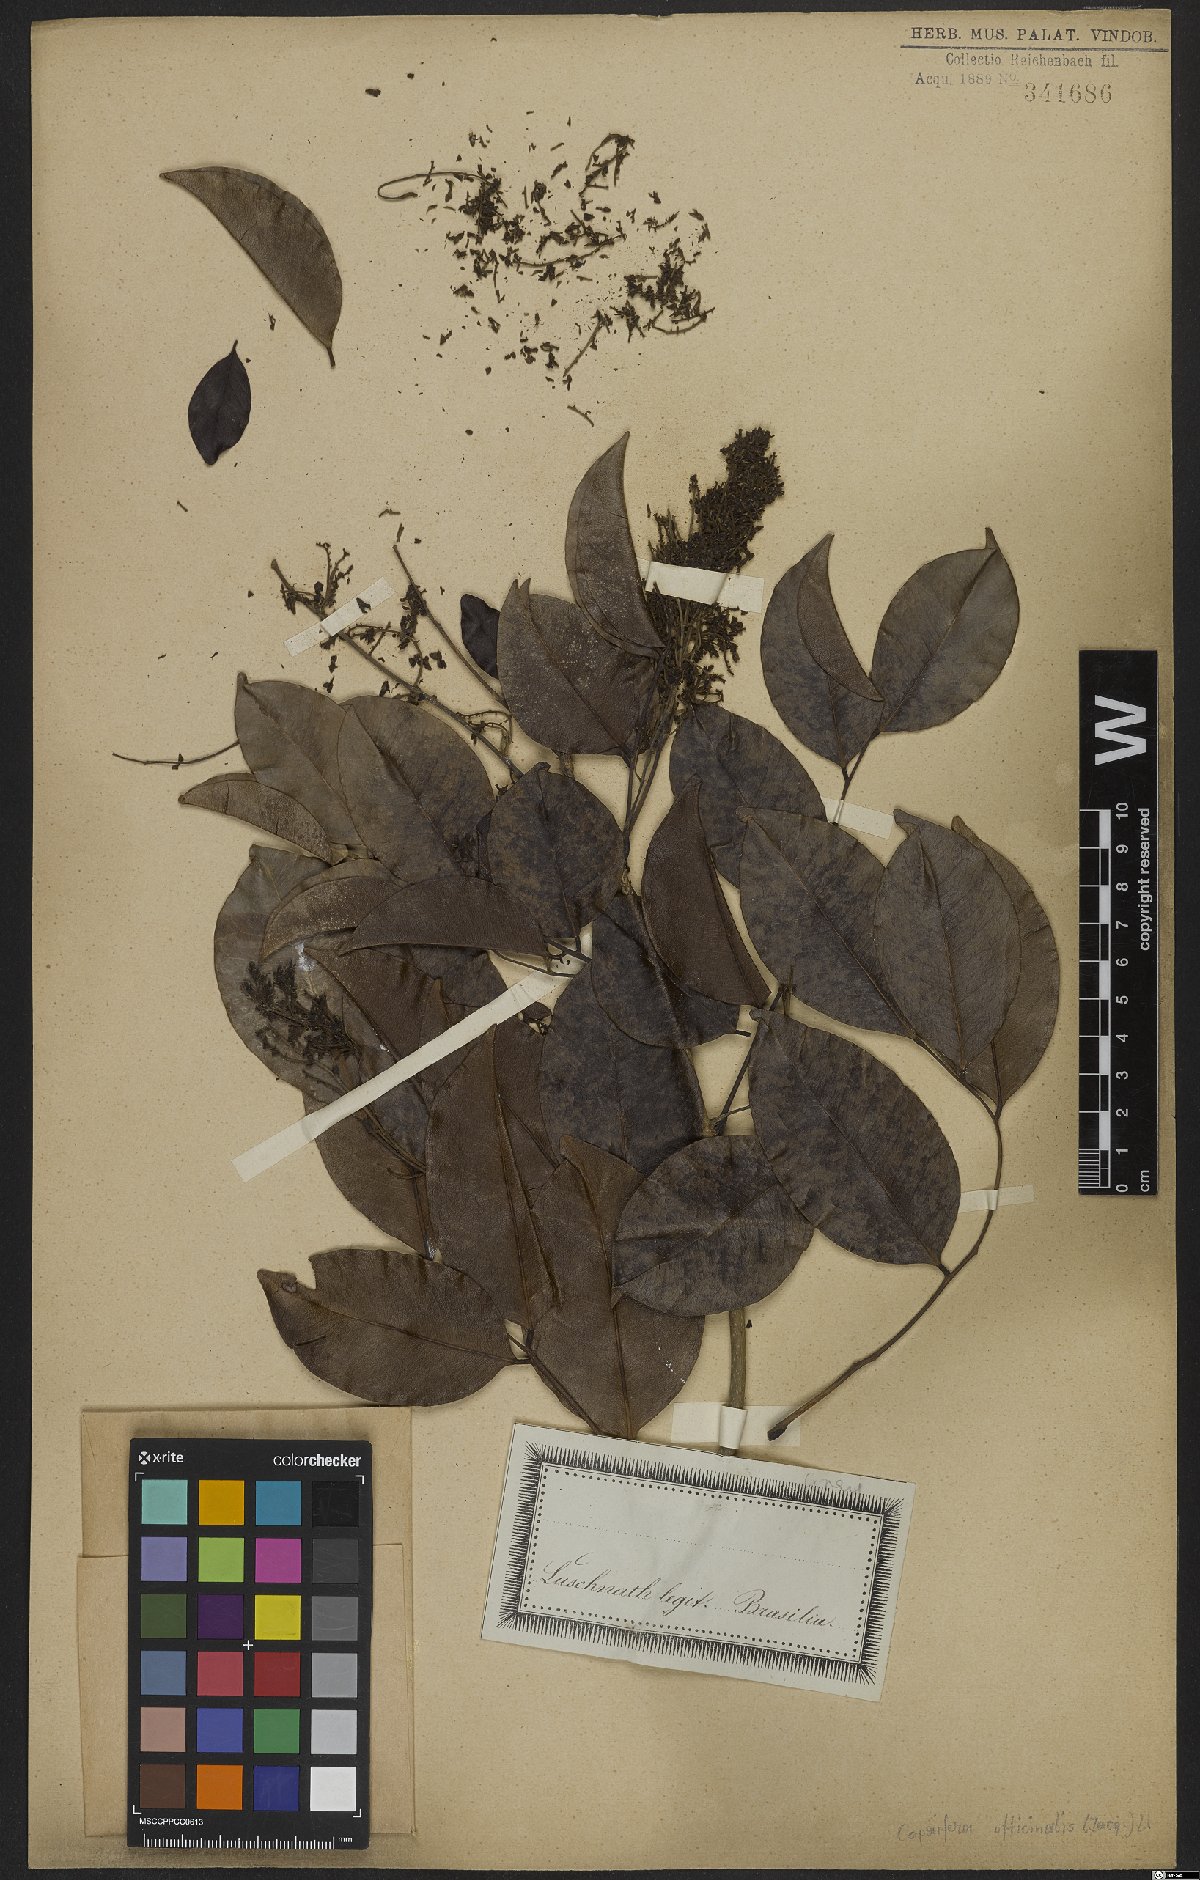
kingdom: Plantae
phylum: Tracheophyta
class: Magnoliopsida
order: Fabales
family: Fabaceae
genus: Copaifera
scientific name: Copaifera officinalis
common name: Copaiba
